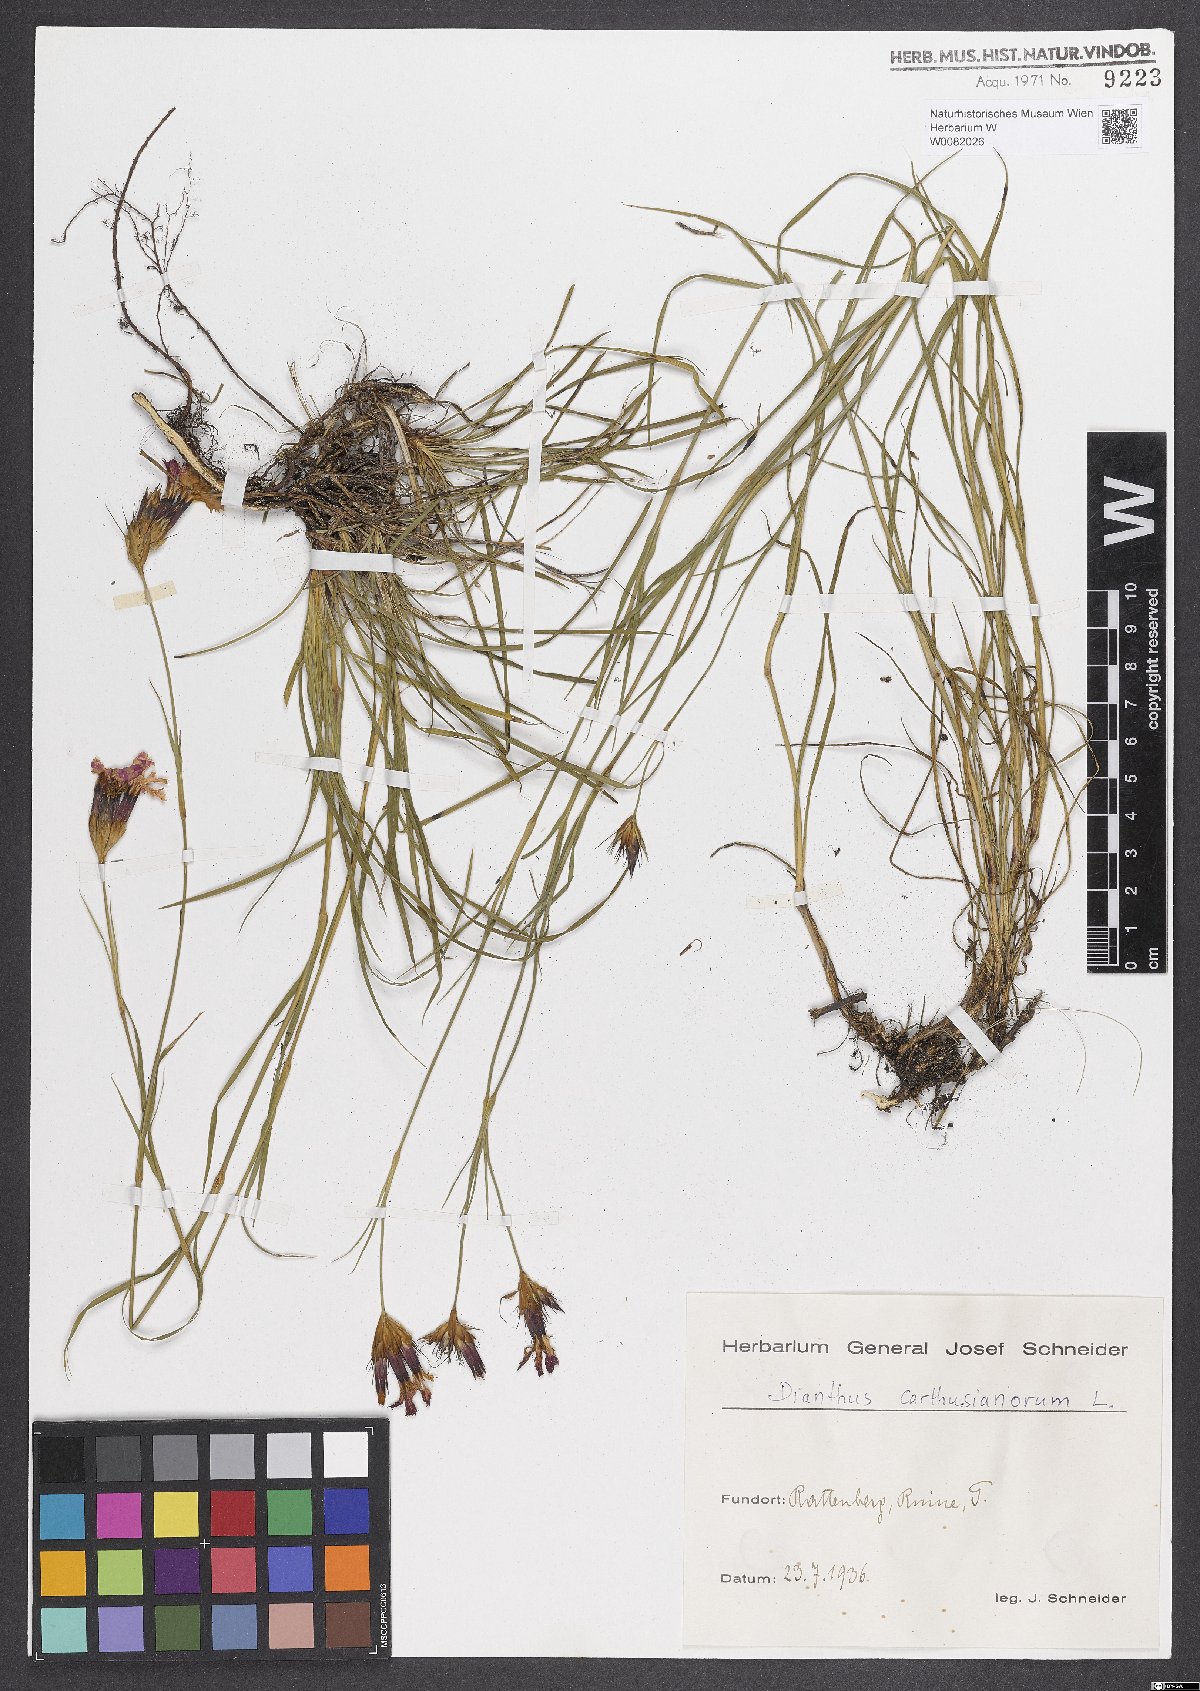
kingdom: Plantae
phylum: Tracheophyta
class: Magnoliopsida
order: Caryophyllales
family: Caryophyllaceae
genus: Dianthus
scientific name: Dianthus carthusianorum
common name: Carthusian pink
